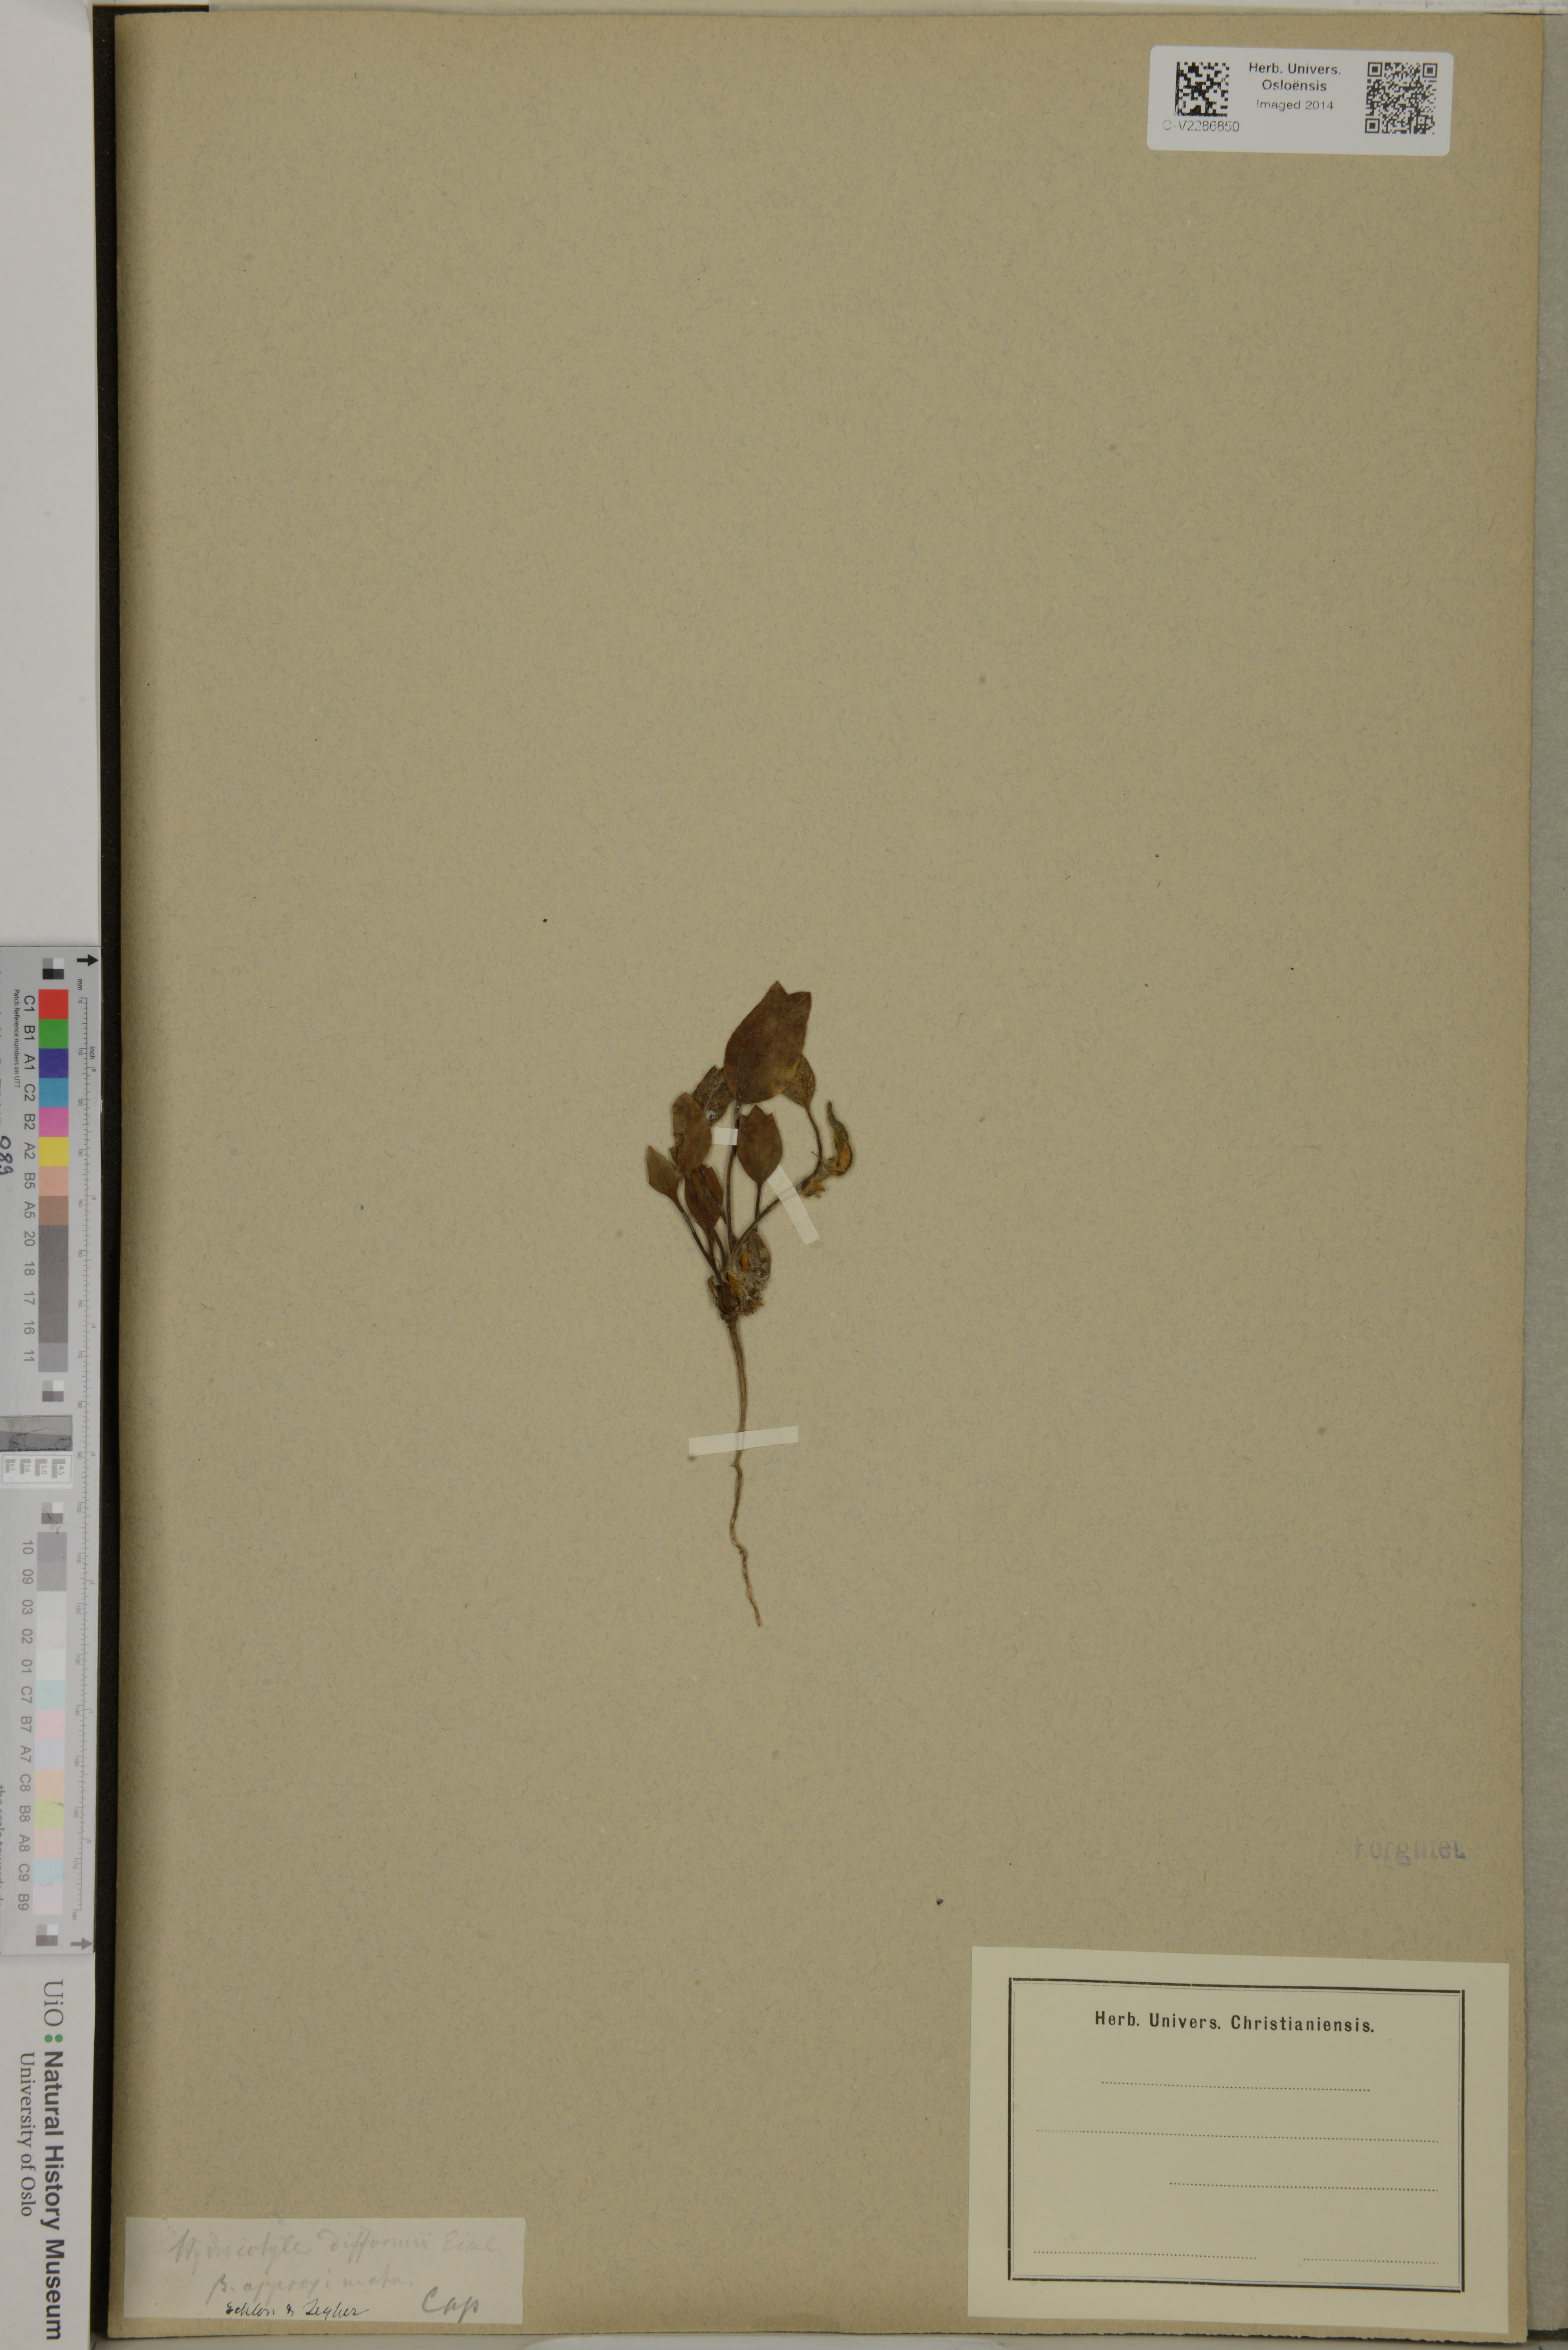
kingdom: Plantae
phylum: Tracheophyta
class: Magnoliopsida
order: Apiales
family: Apiaceae
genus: Centella
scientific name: Centella difformis
